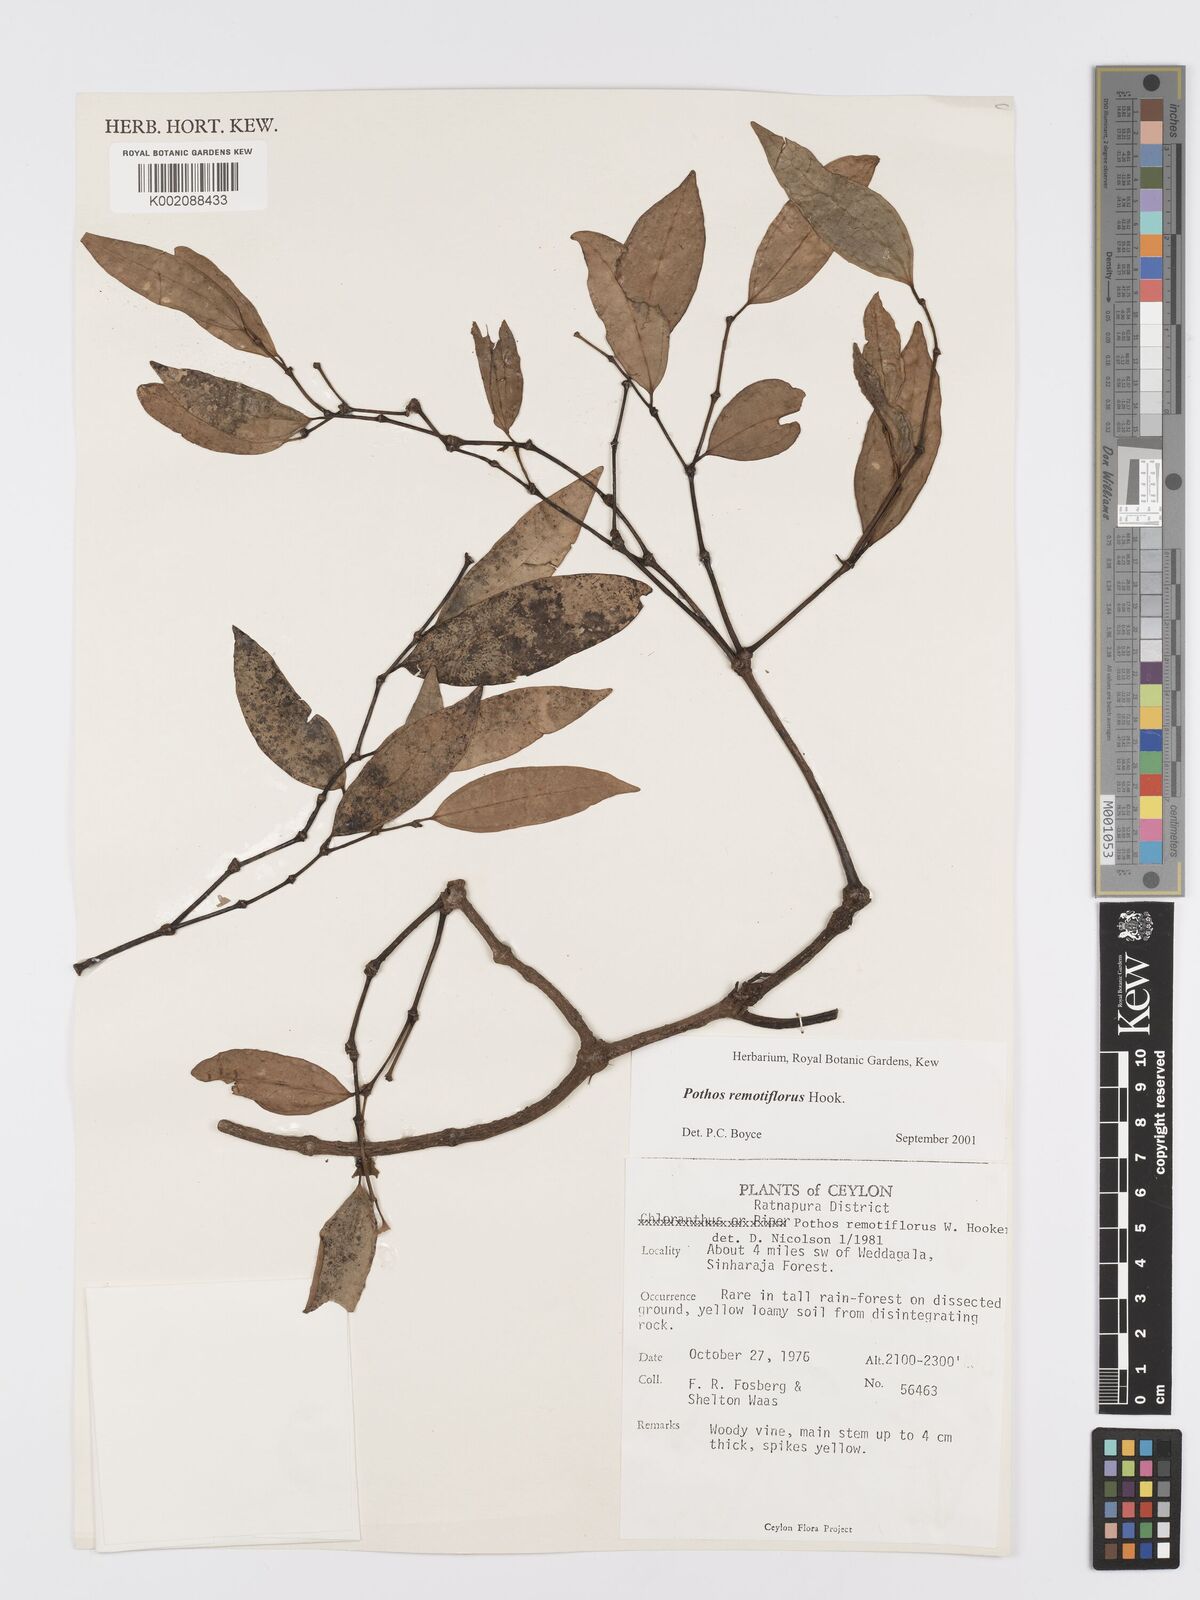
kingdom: Plantae
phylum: Tracheophyta
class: Liliopsida
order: Alismatales
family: Araceae
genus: Pothos
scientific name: Pothos remotiflorus
